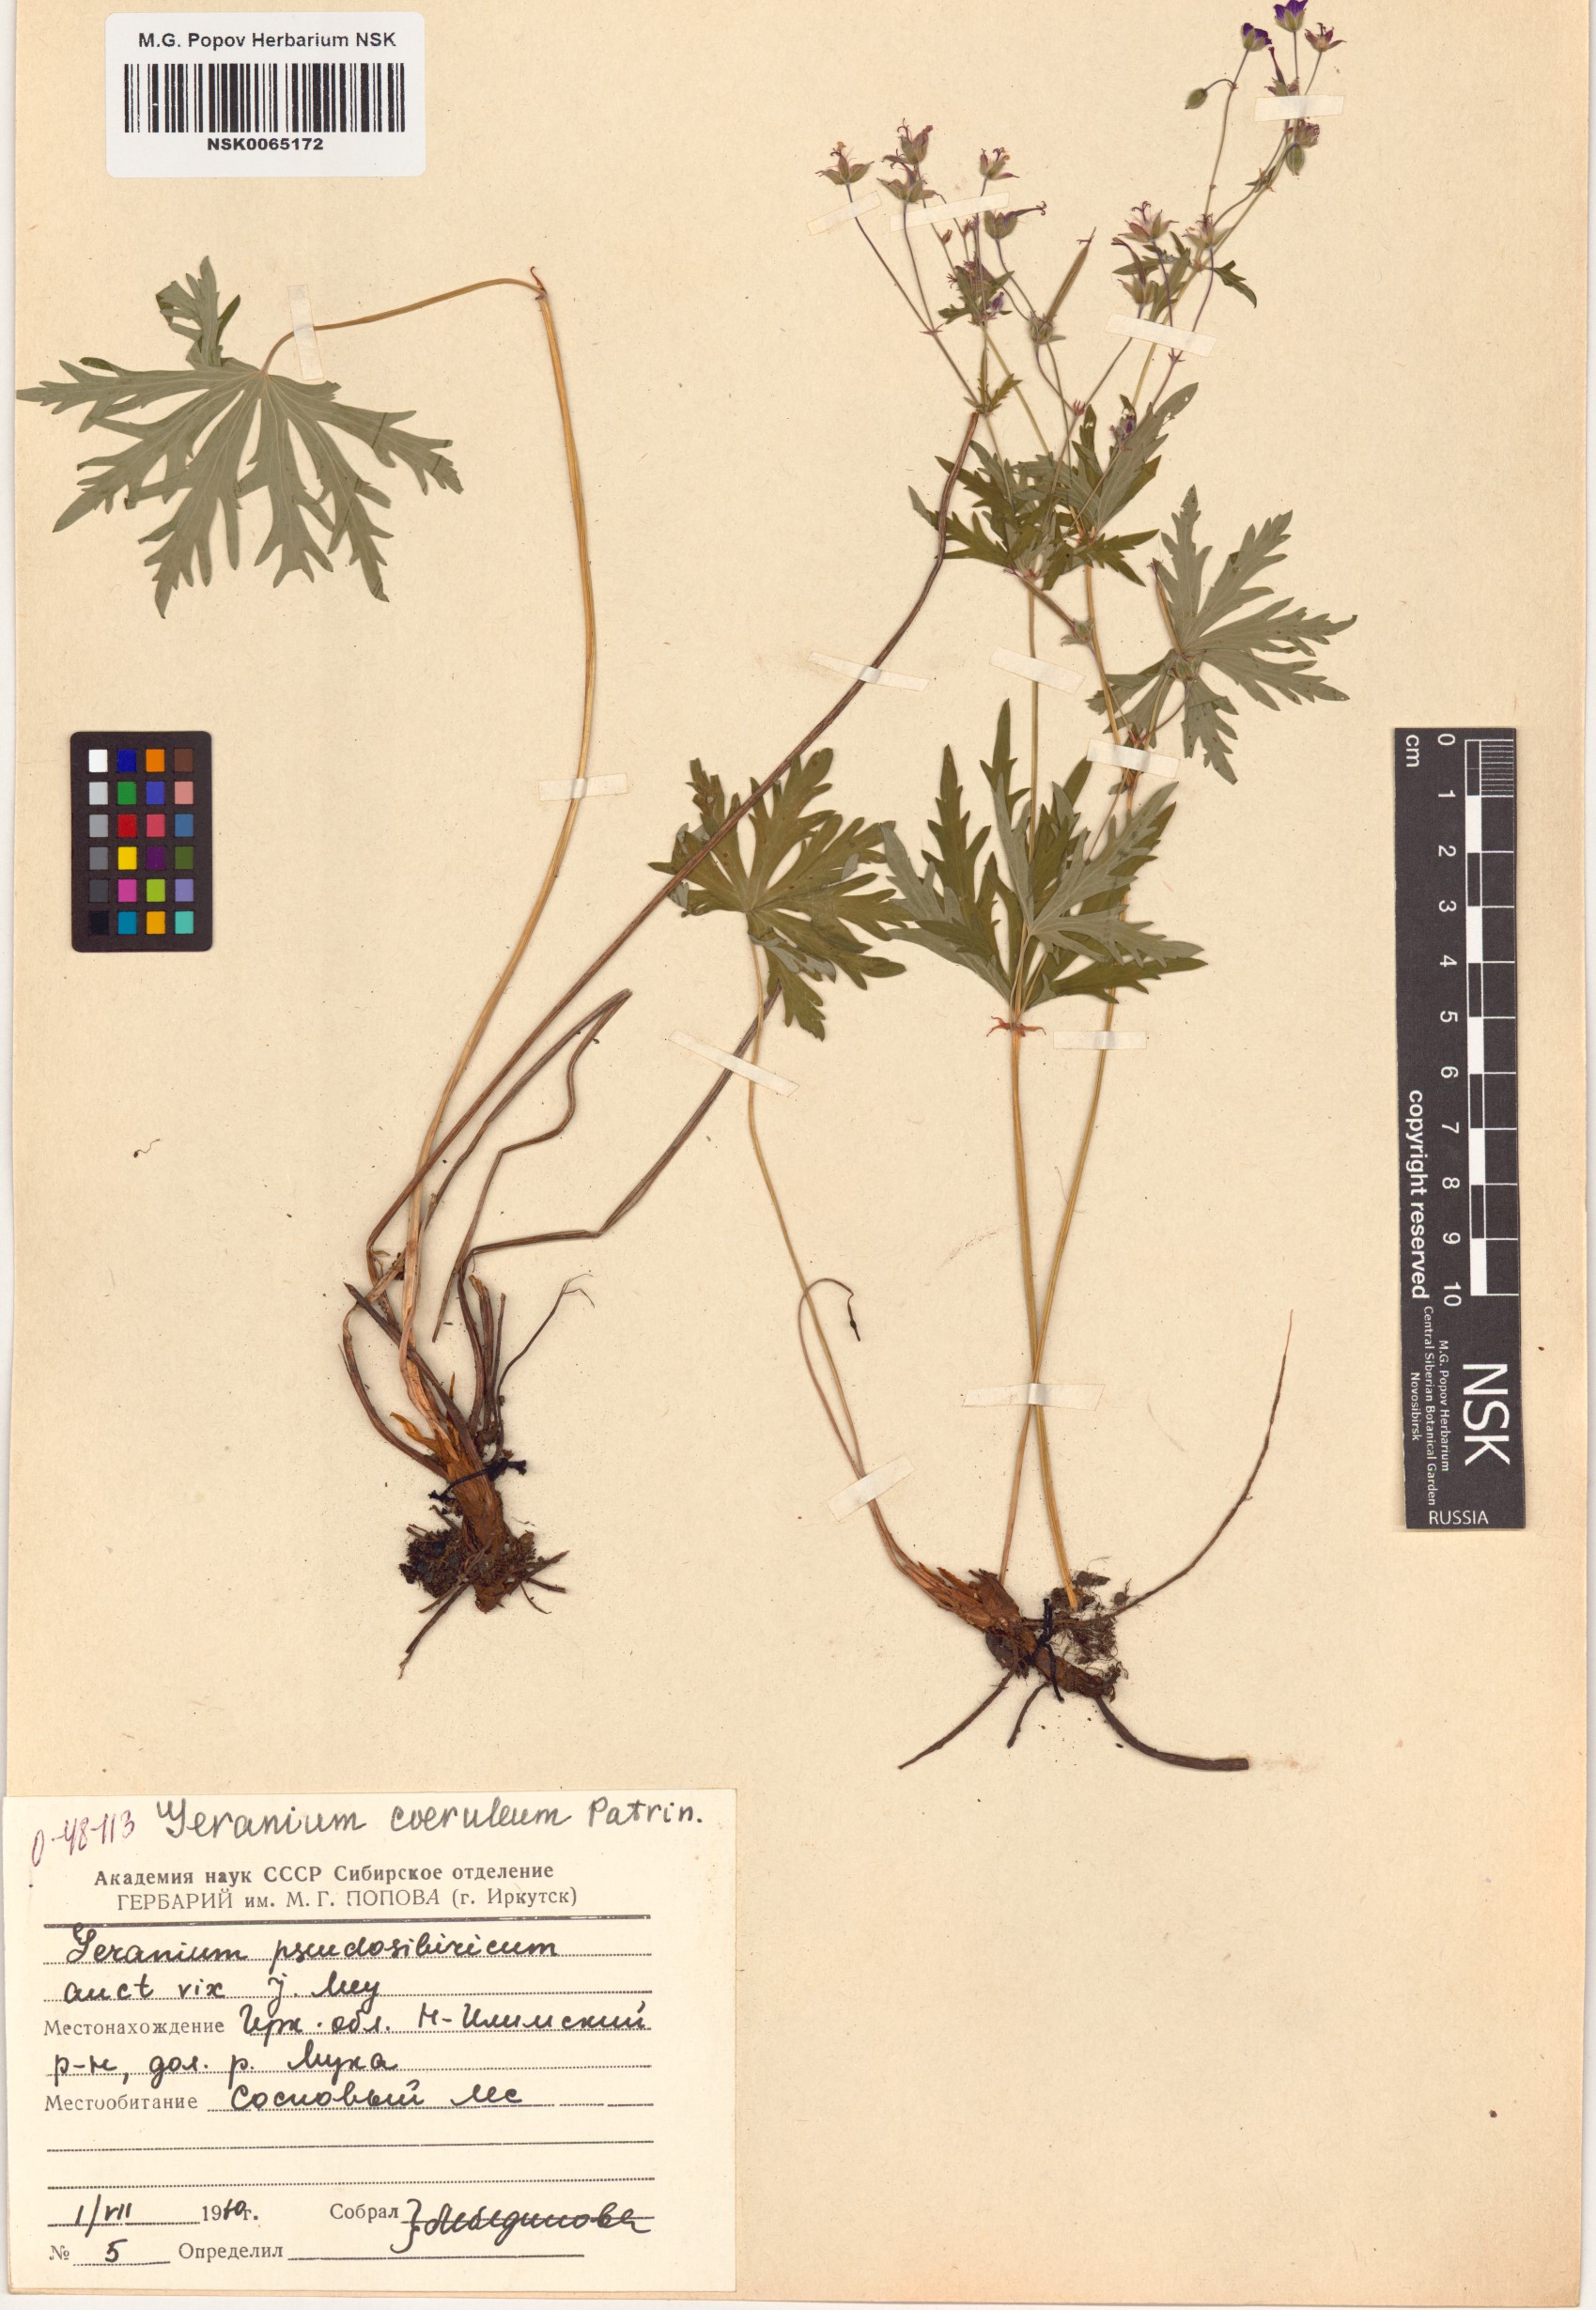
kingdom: Plantae
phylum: Tracheophyta
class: Magnoliopsida
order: Geraniales
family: Geraniaceae
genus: Geranium
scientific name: Geranium pseudosibiricum
